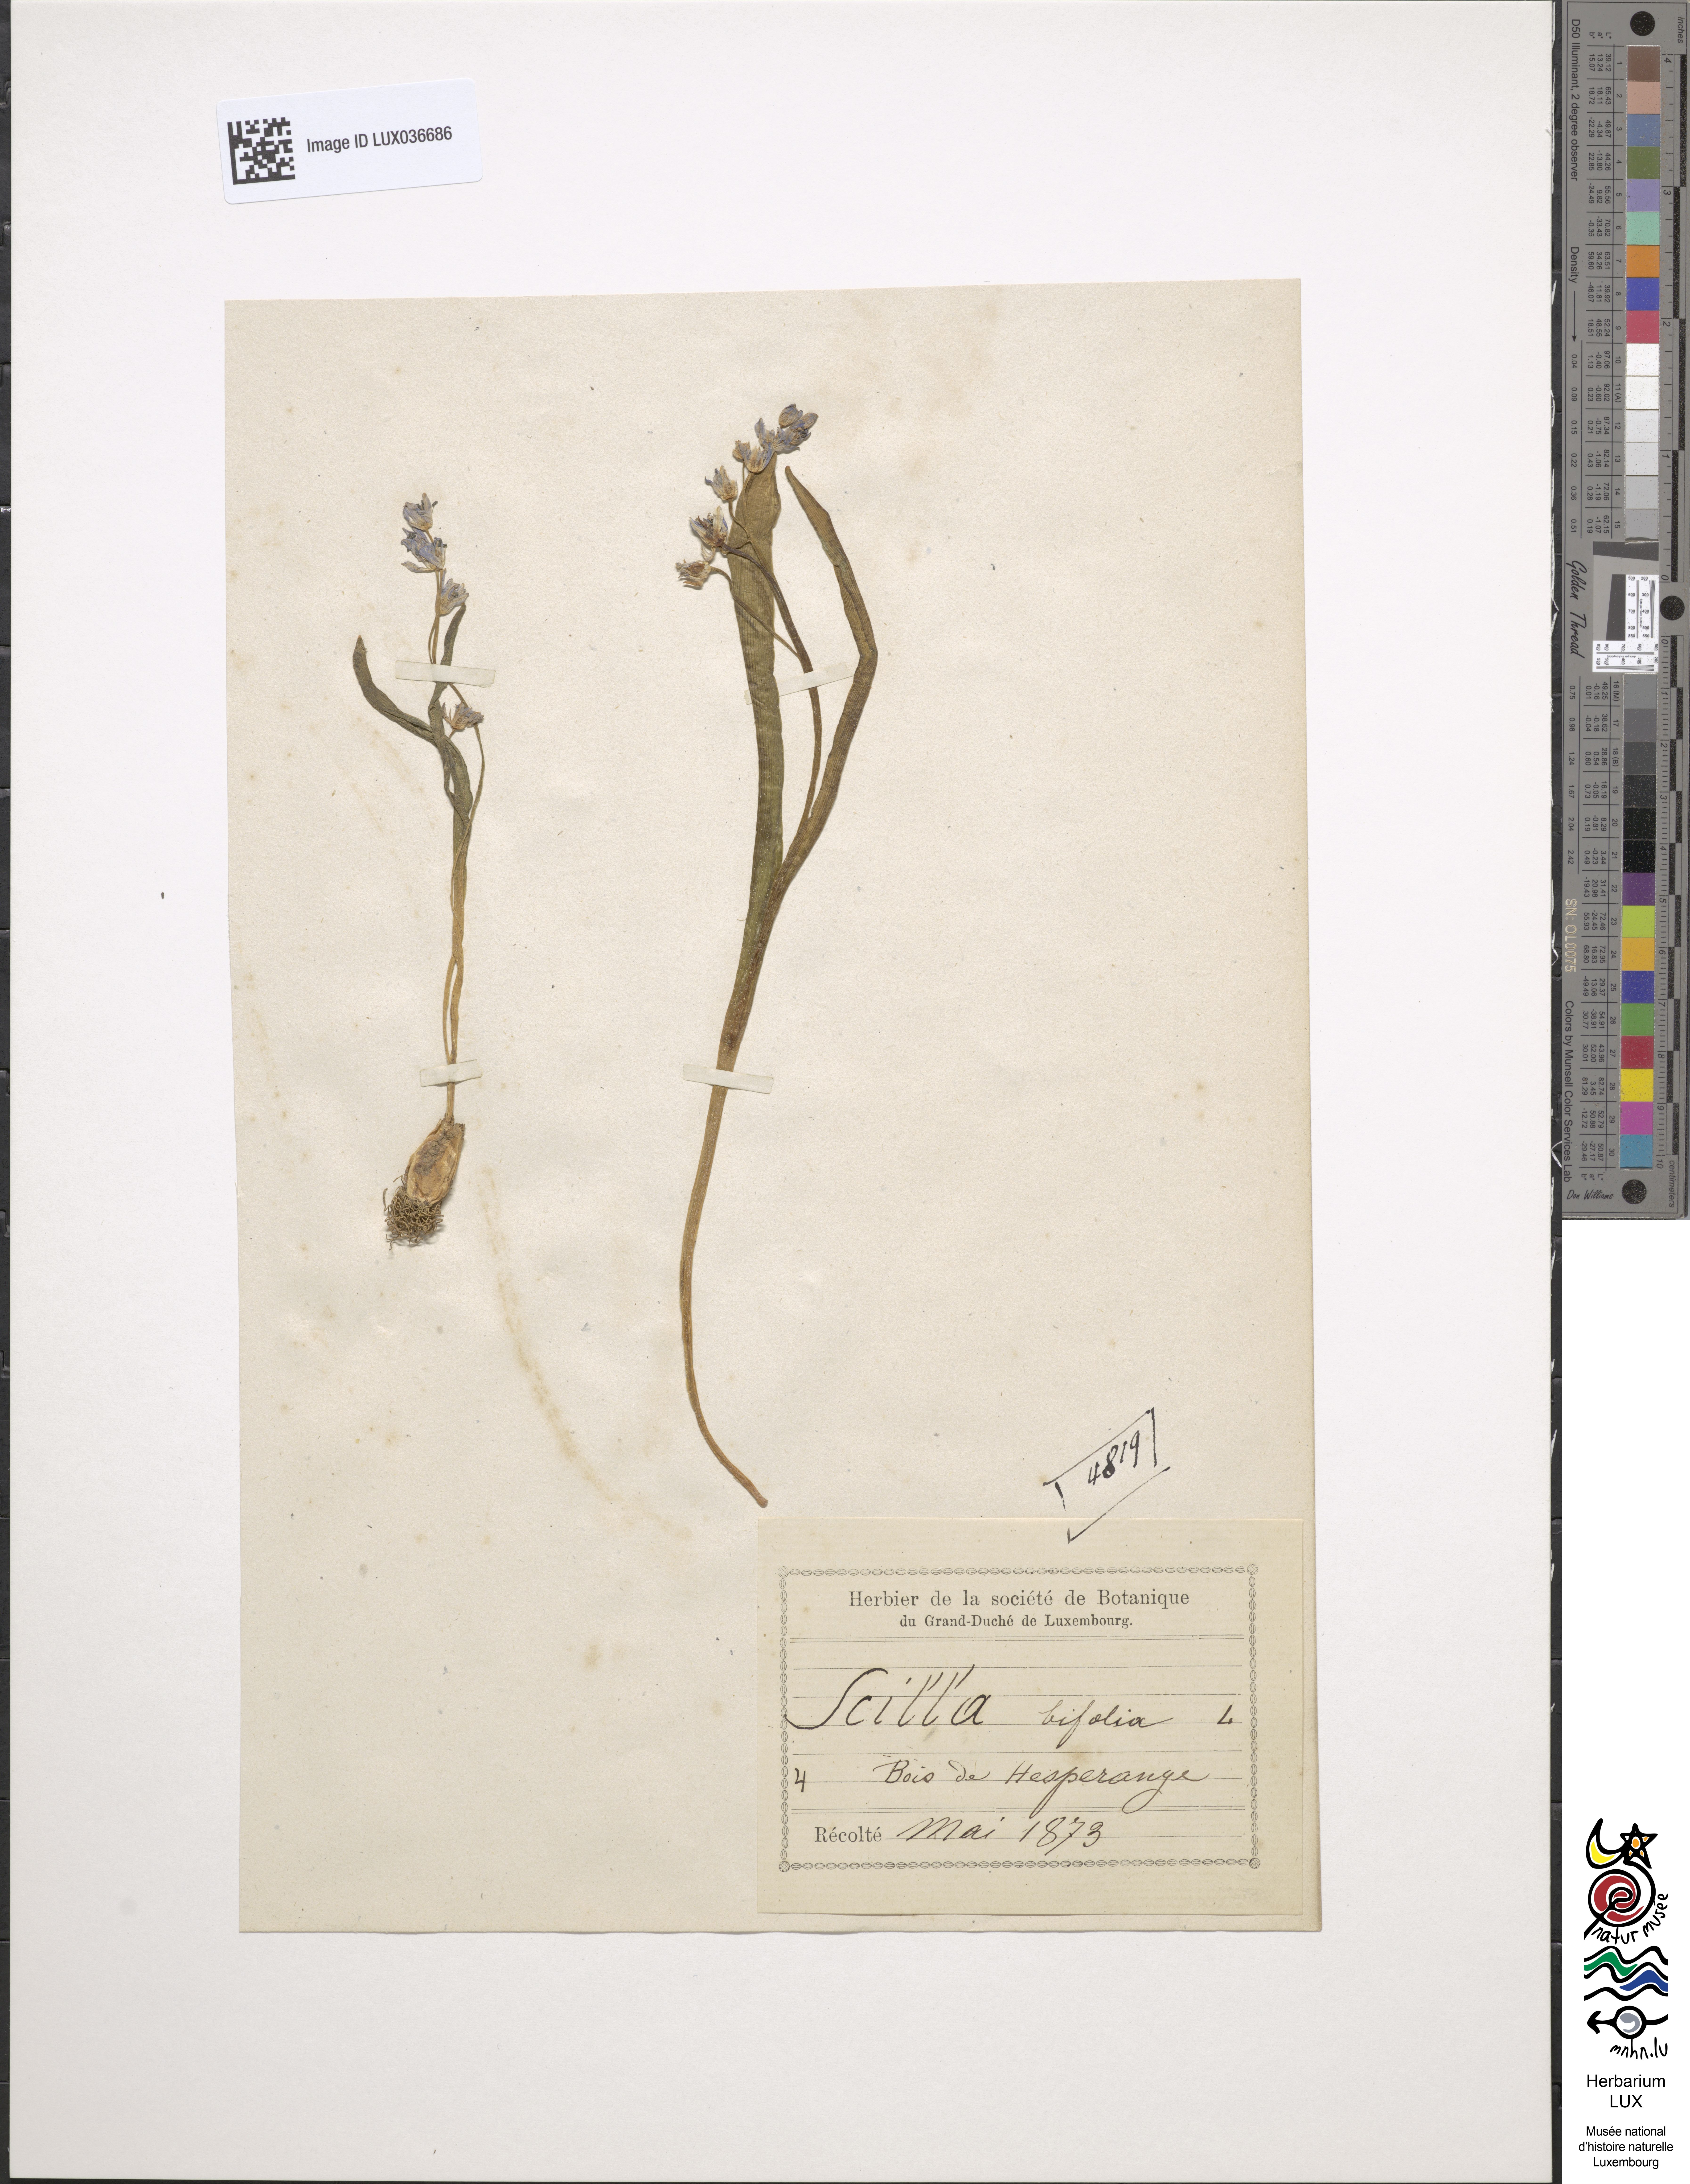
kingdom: Plantae
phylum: Tracheophyta
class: Liliopsida
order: Asparagales
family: Asparagaceae
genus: Scilla
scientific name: Scilla bifolia
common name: Alpine squill
